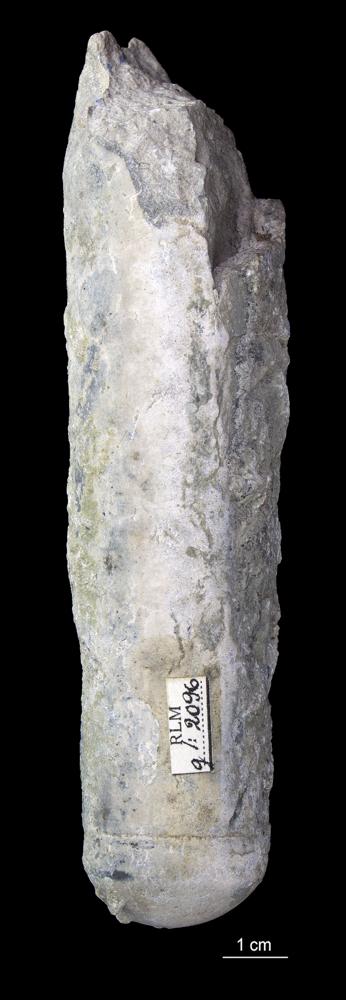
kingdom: Animalia
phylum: Mollusca
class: Cephalopoda
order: Orthocerida
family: Orthoceratidae
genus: Orthoceras
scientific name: Orthoceras
